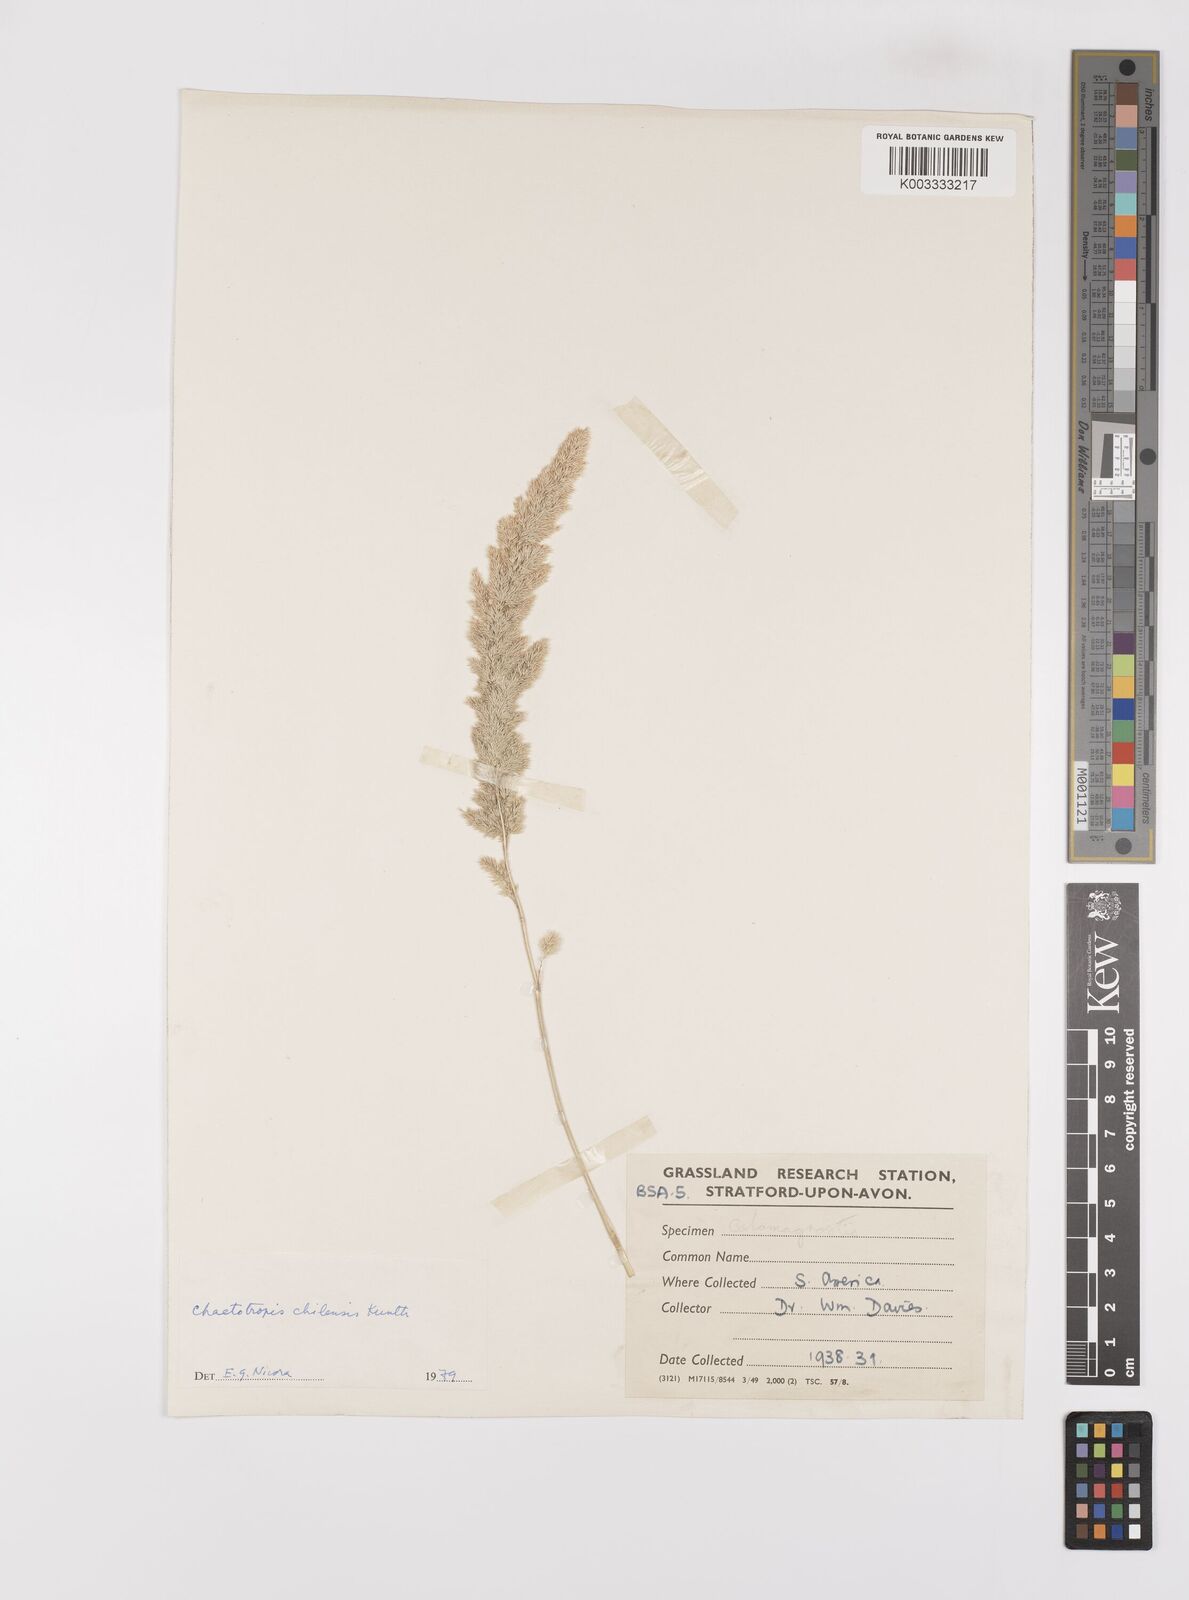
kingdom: Plantae
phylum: Tracheophyta
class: Liliopsida
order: Poales
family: Poaceae
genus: Polypogon
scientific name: Polypogon chilensis
